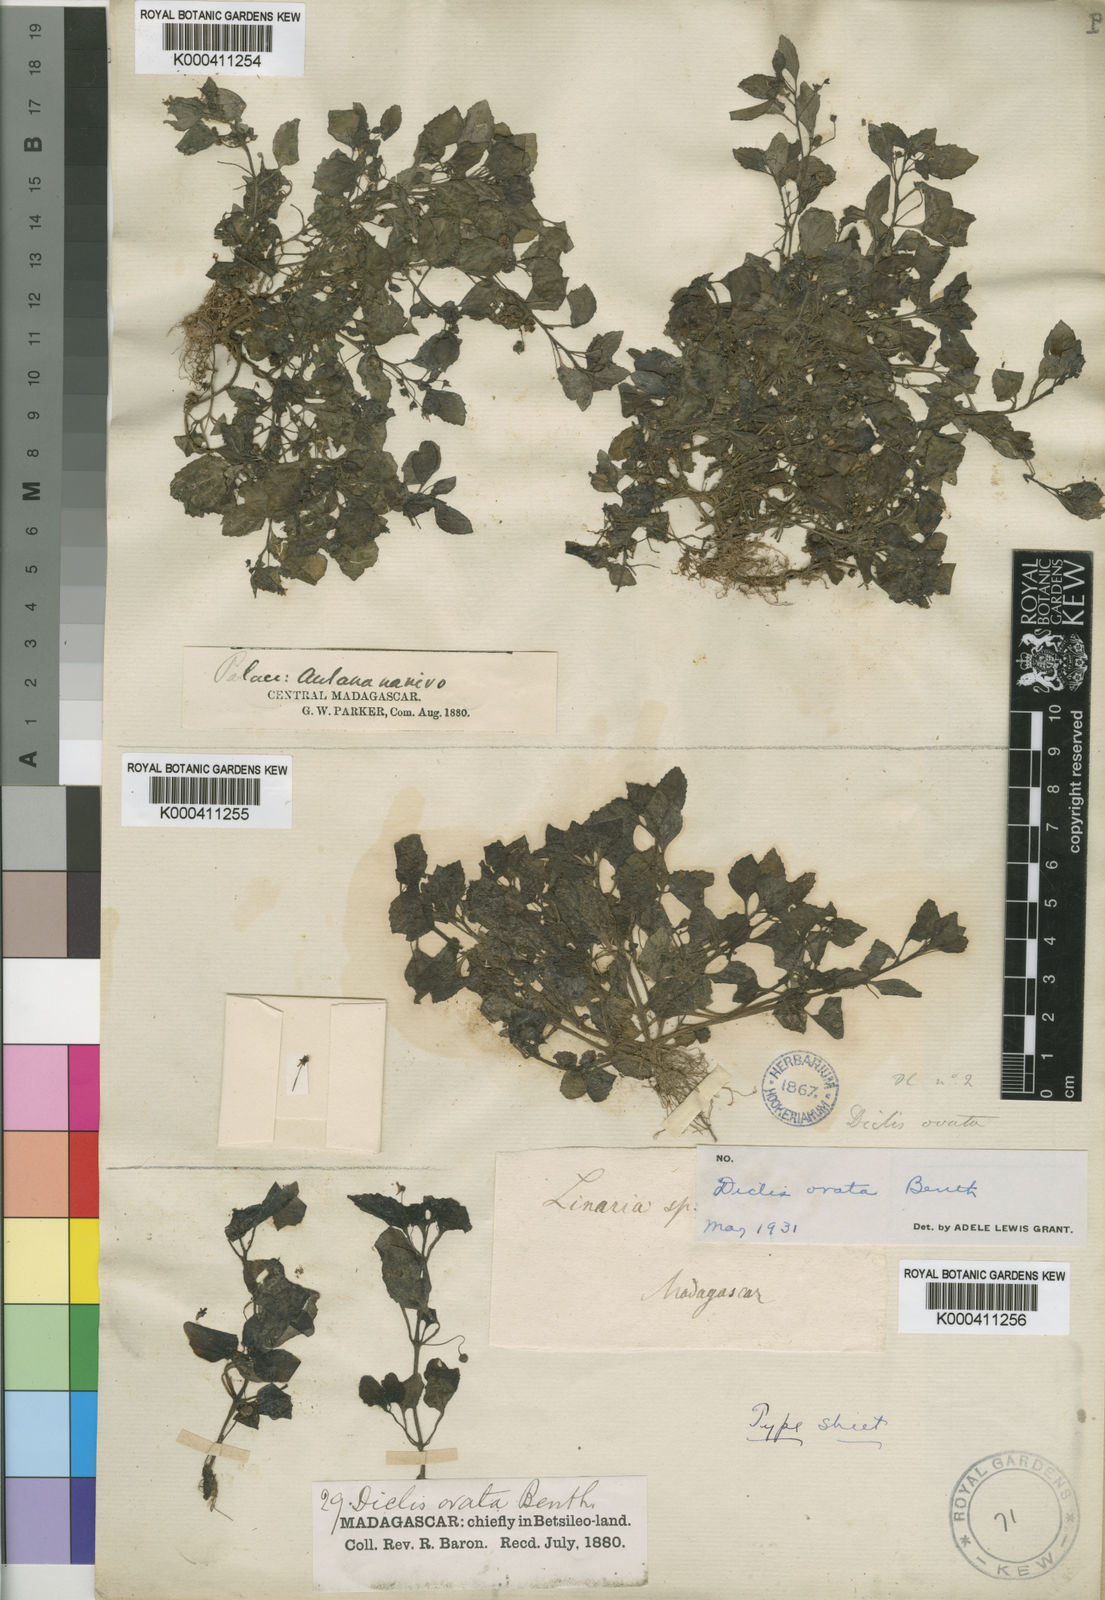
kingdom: Plantae
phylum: Tracheophyta
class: Magnoliopsida
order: Lamiales
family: Scrophulariaceae
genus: Diclis
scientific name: Diclis ovata
